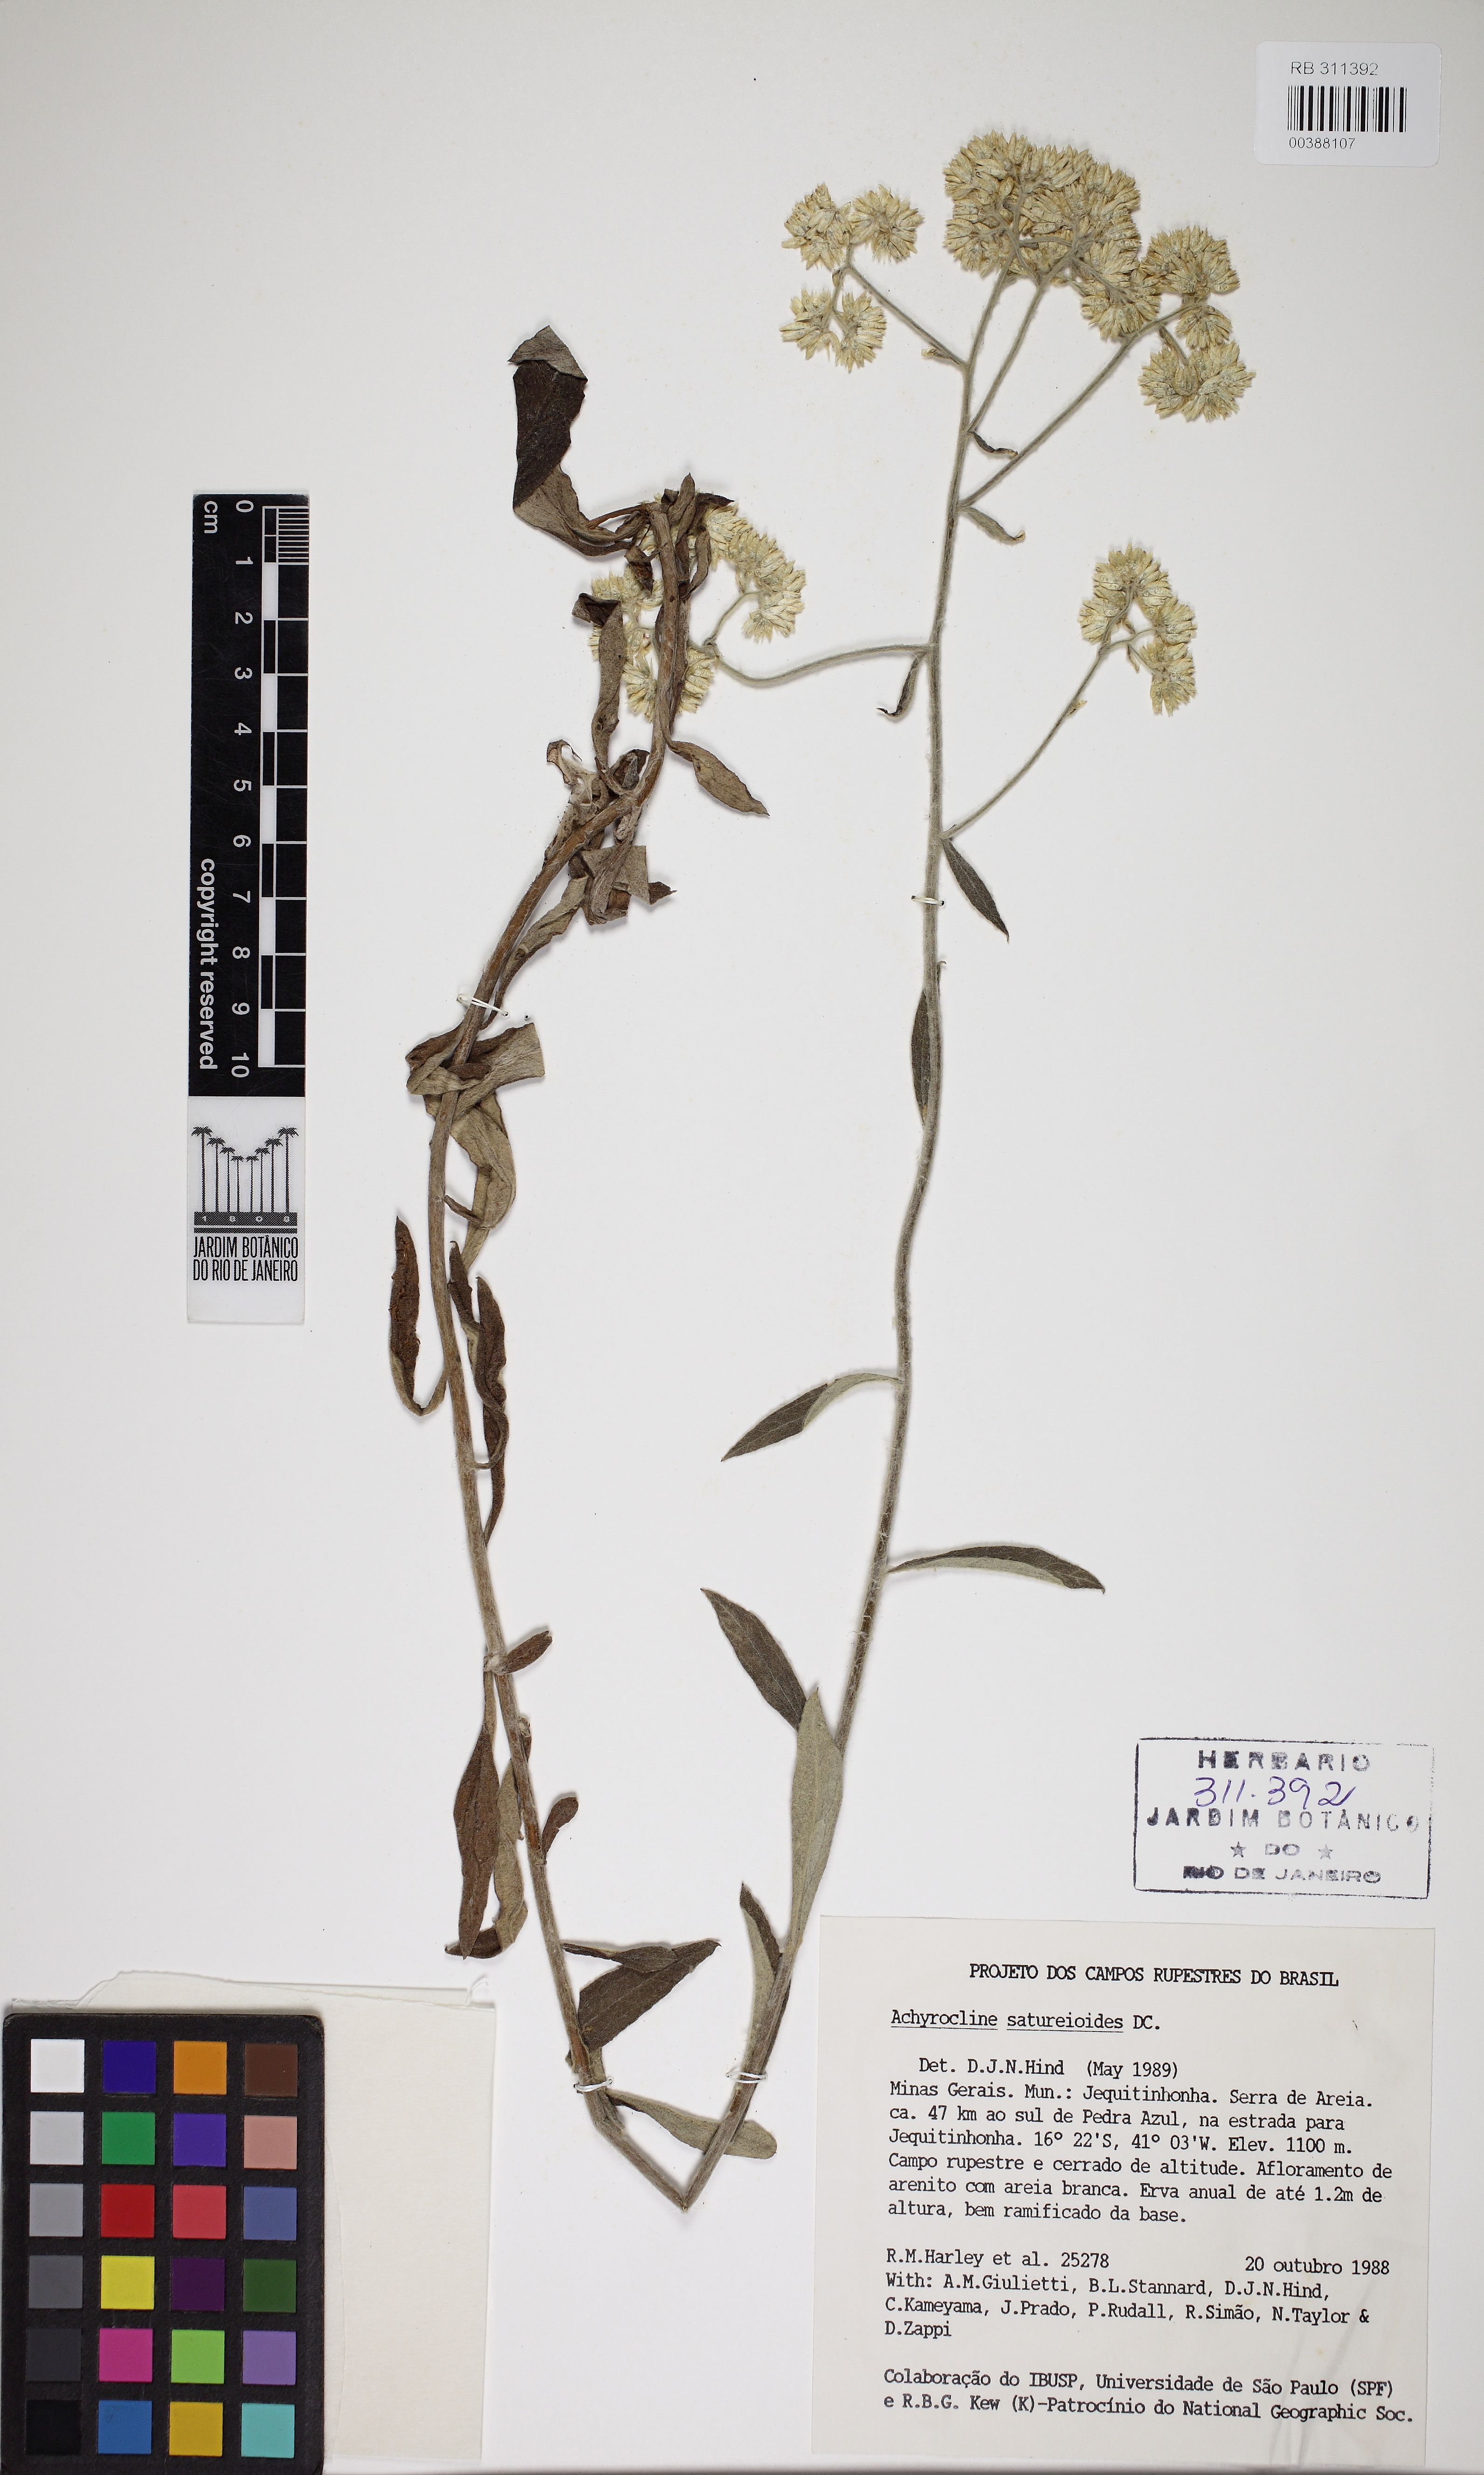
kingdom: Plantae
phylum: Tracheophyta
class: Magnoliopsida
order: Asterales
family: Asteraceae
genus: Achyrocline
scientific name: Achyrocline satureioides
